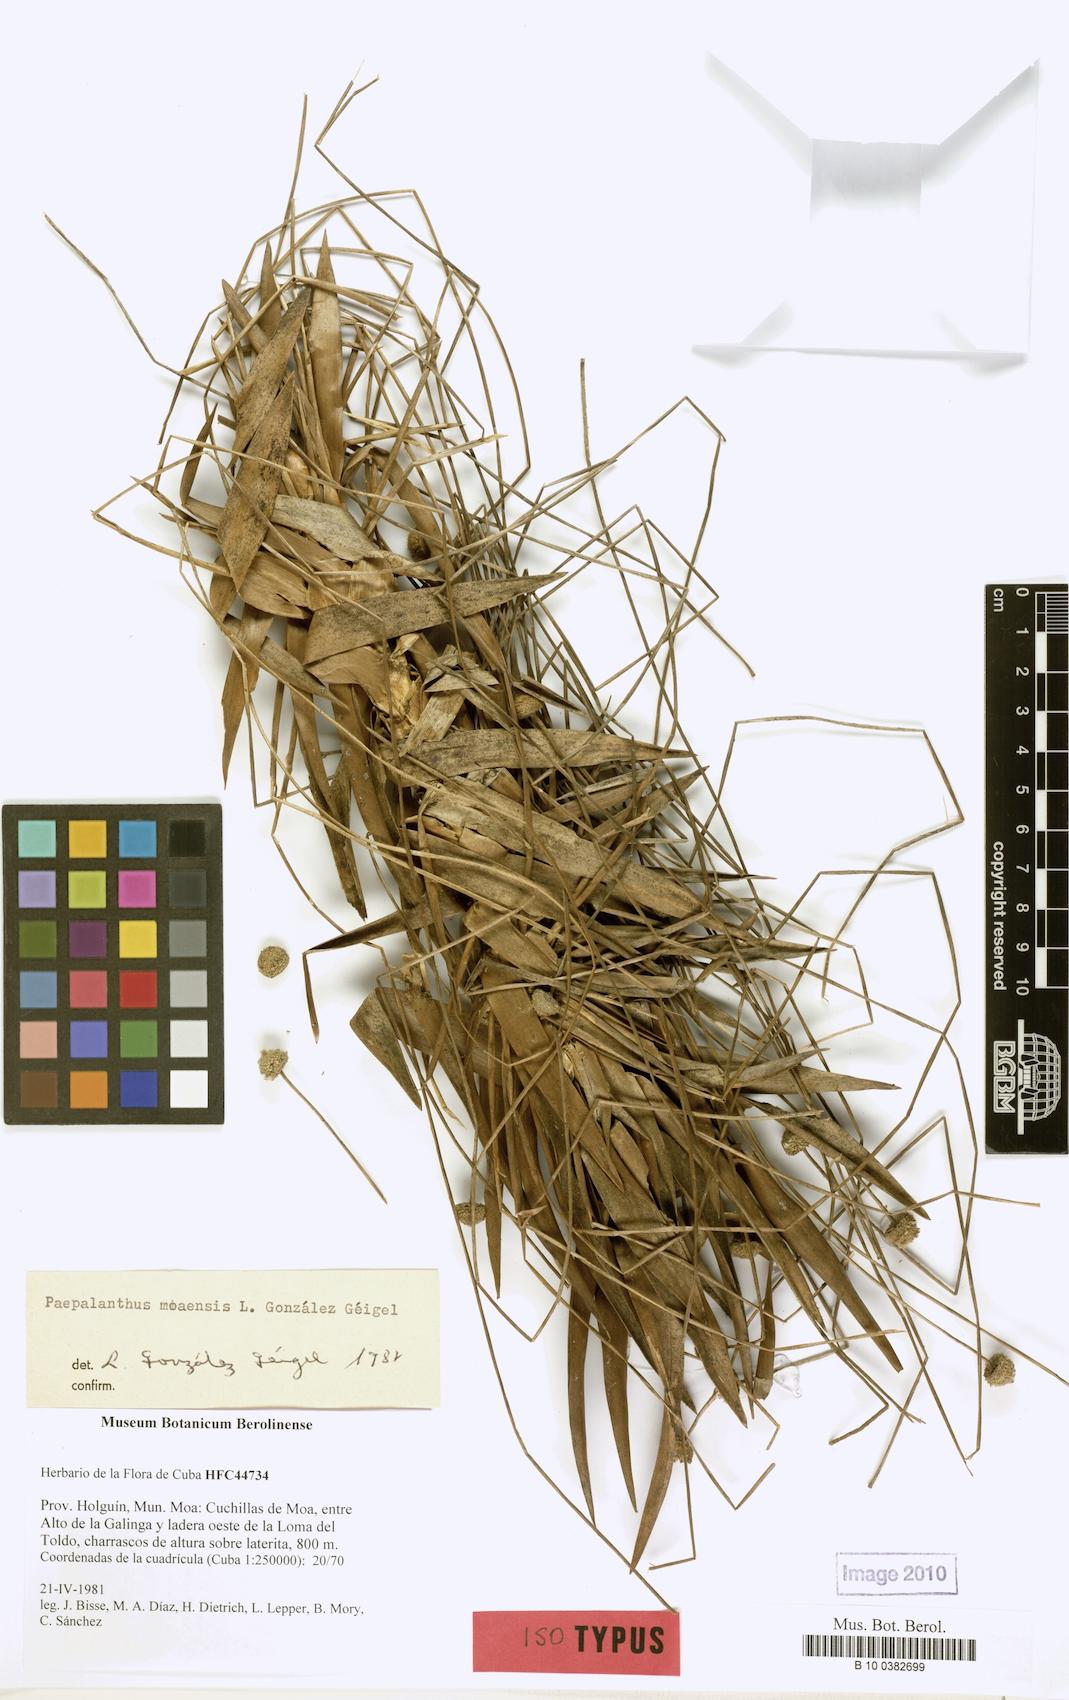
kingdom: Plantae
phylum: Tracheophyta
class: Liliopsida
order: Poales
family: Eriocaulaceae
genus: Paepalanthus
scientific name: Paepalanthus moaensis
